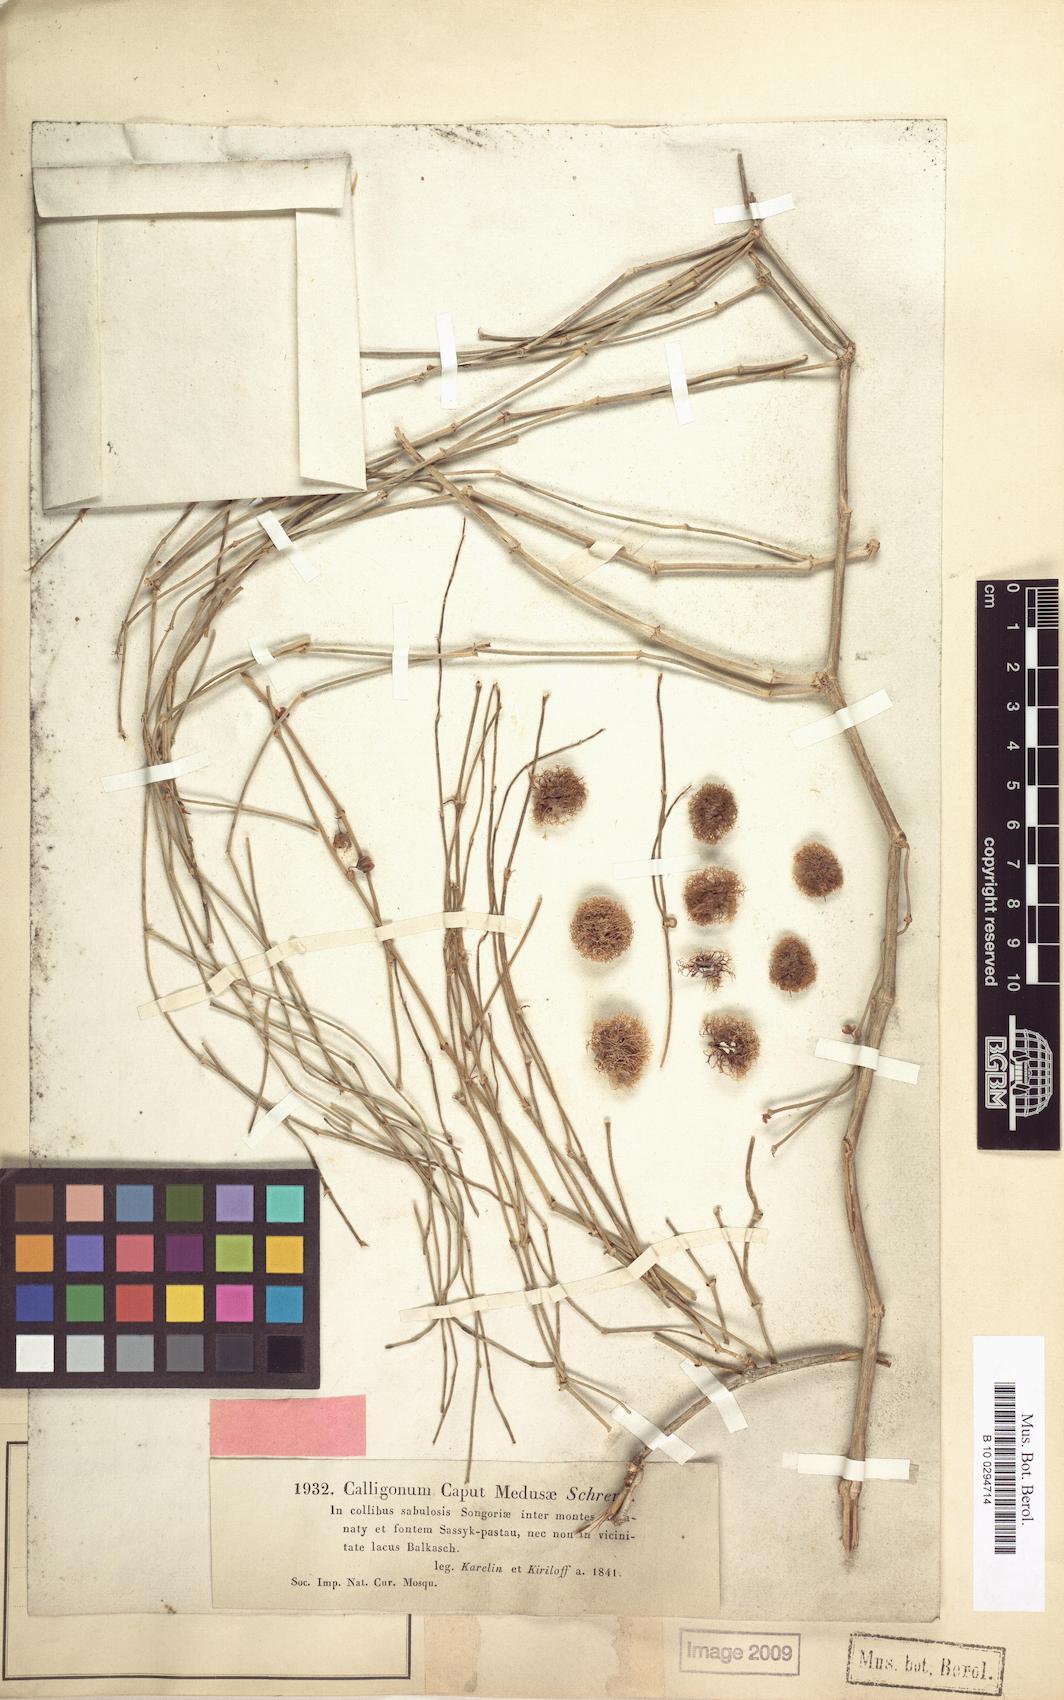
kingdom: Plantae
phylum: Tracheophyta
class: Magnoliopsida
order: Caryophyllales
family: Polygonaceae
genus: Calligonum
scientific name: Calligonum caput-medusae
